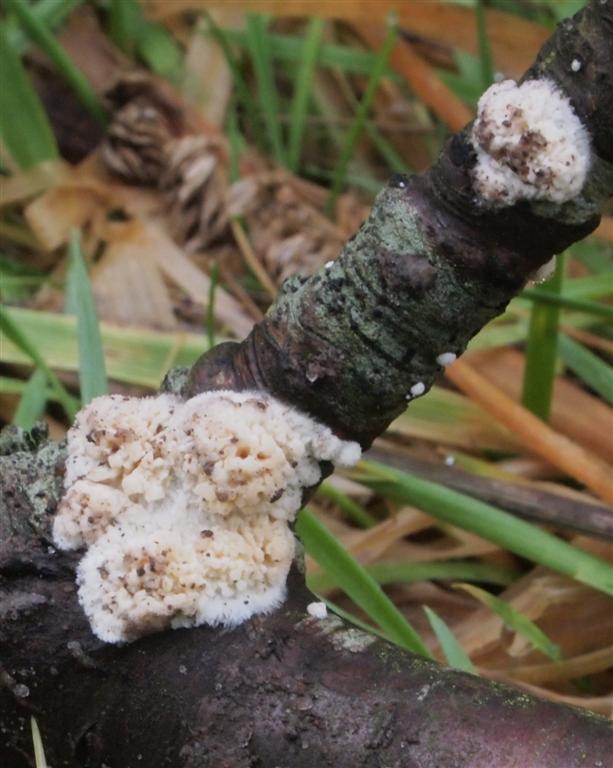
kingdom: Fungi
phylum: Basidiomycota
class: Agaricomycetes
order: Hymenochaetales
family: Schizoporaceae
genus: Xylodon
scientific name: Xylodon radula
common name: grovtandet kalkskind
